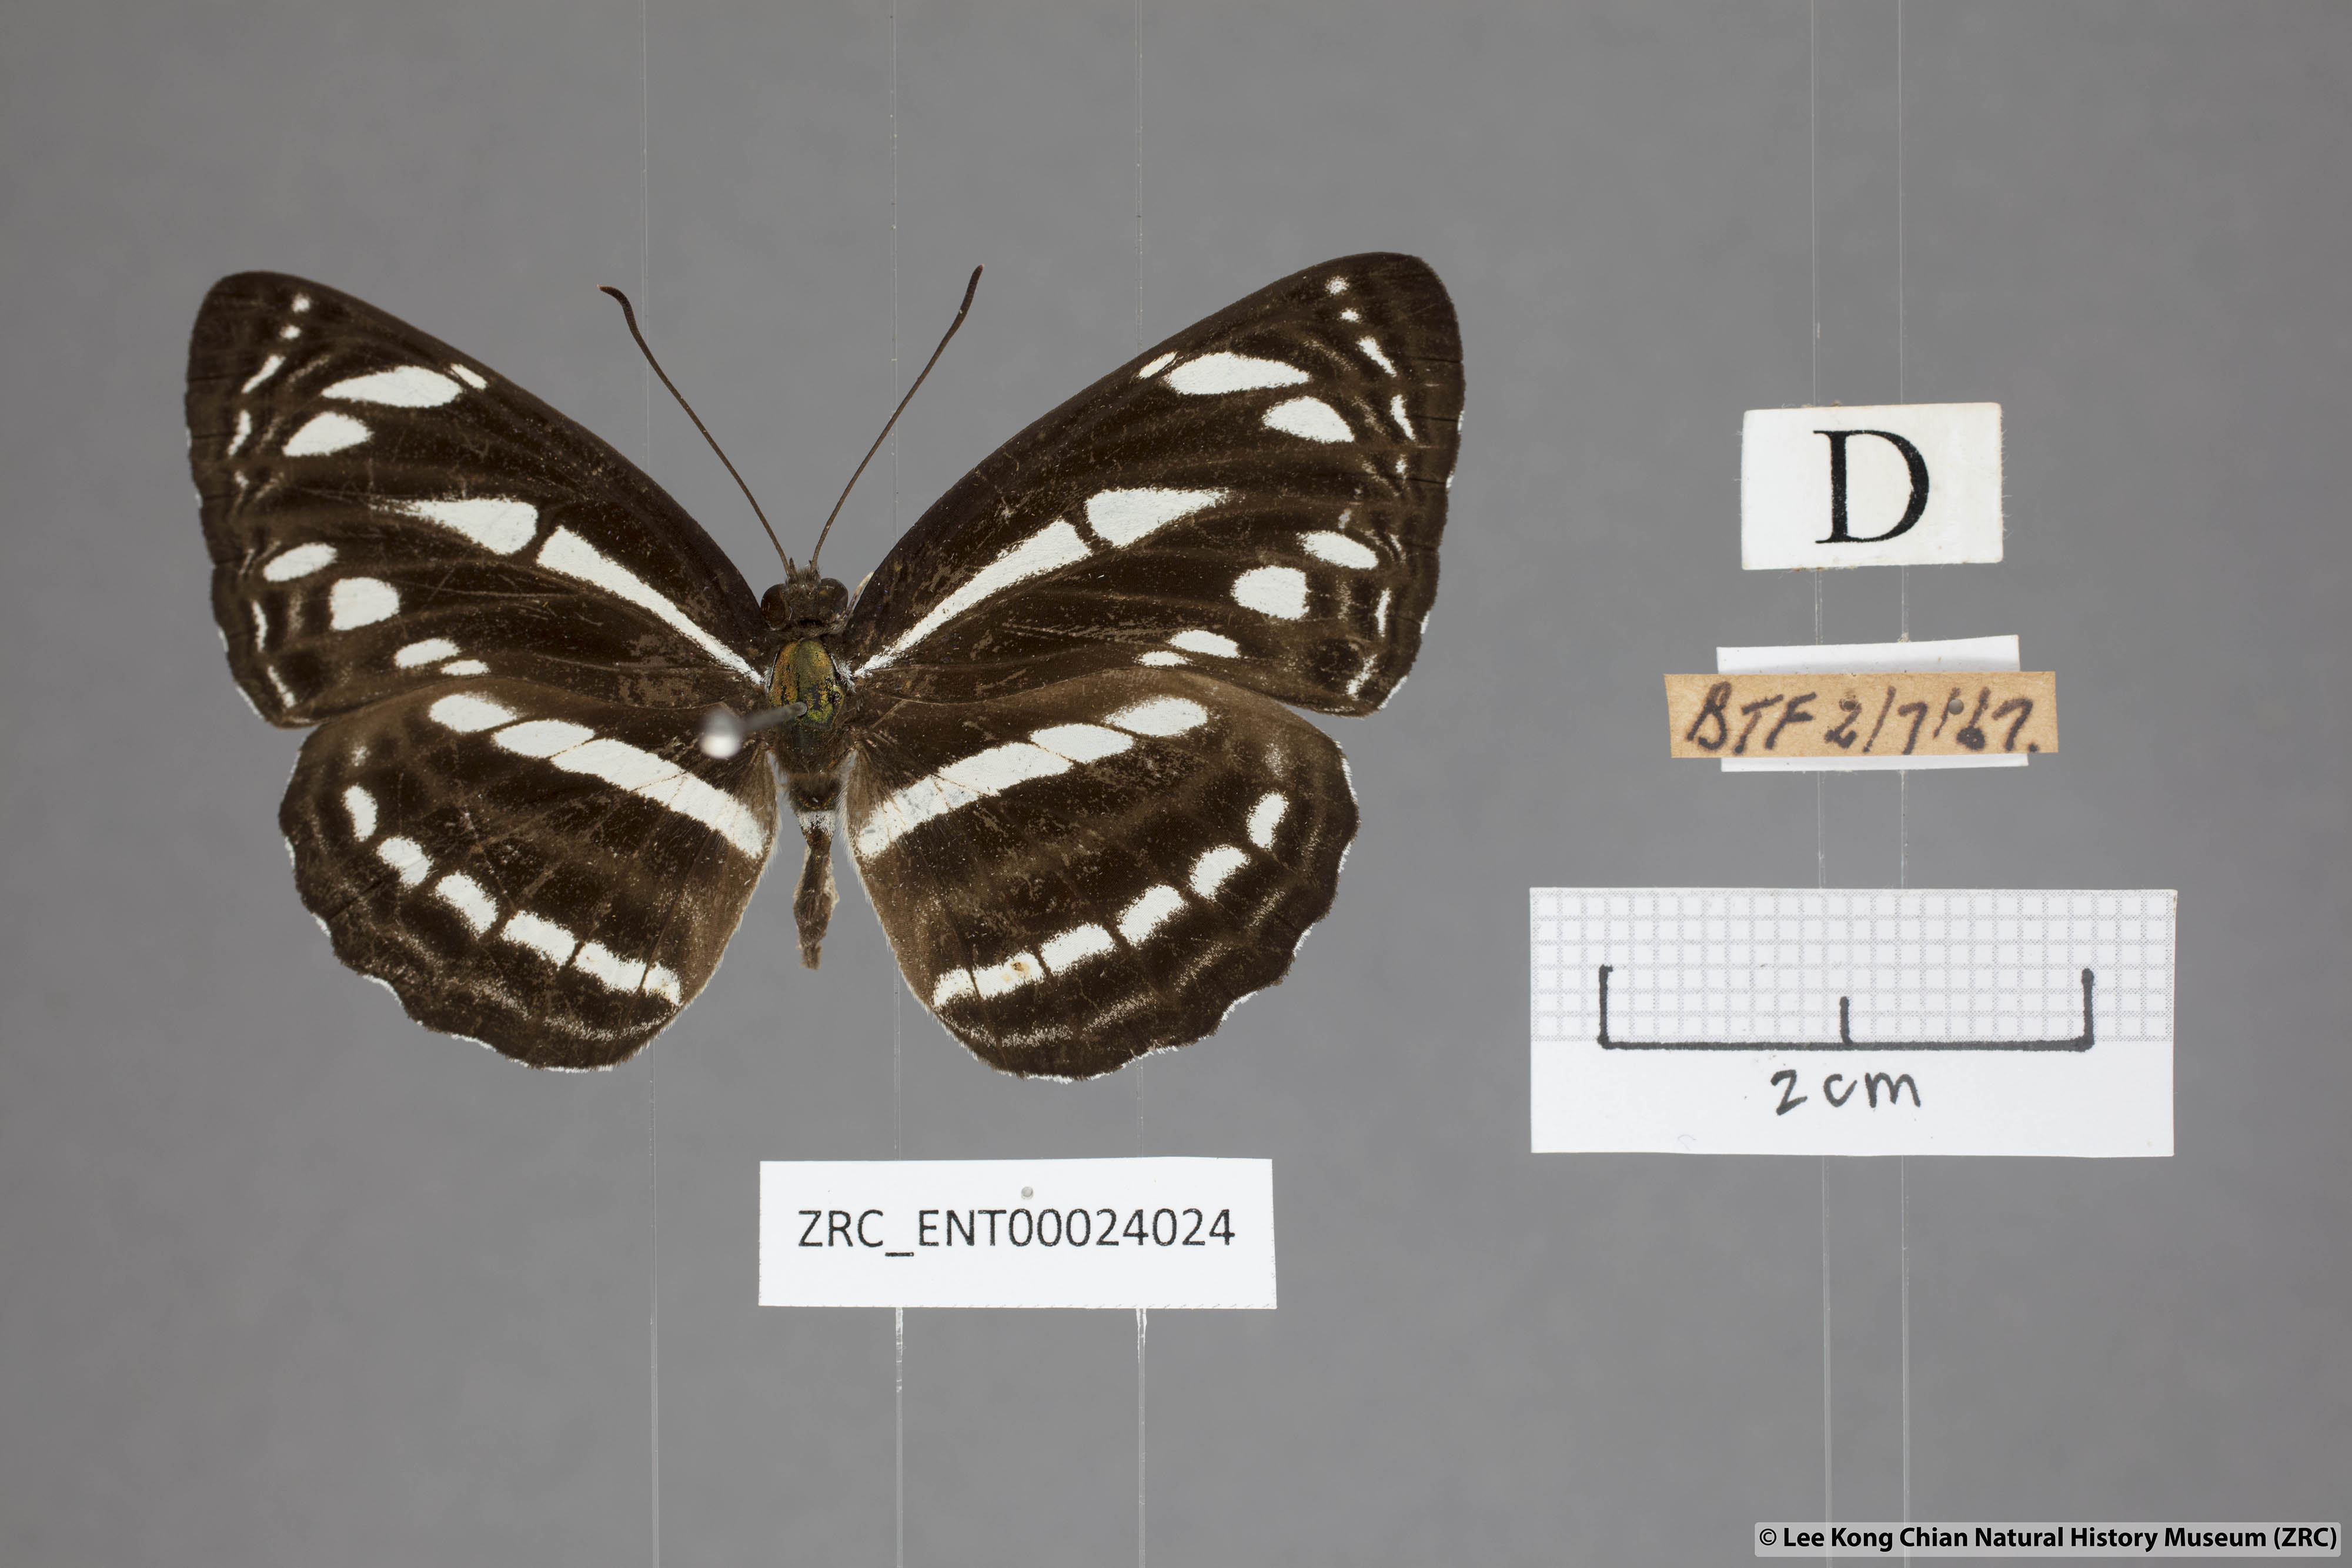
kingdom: Animalia
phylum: Arthropoda
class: Insecta
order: Lepidoptera
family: Nymphalidae
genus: Neptis
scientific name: Neptis leucoporus
